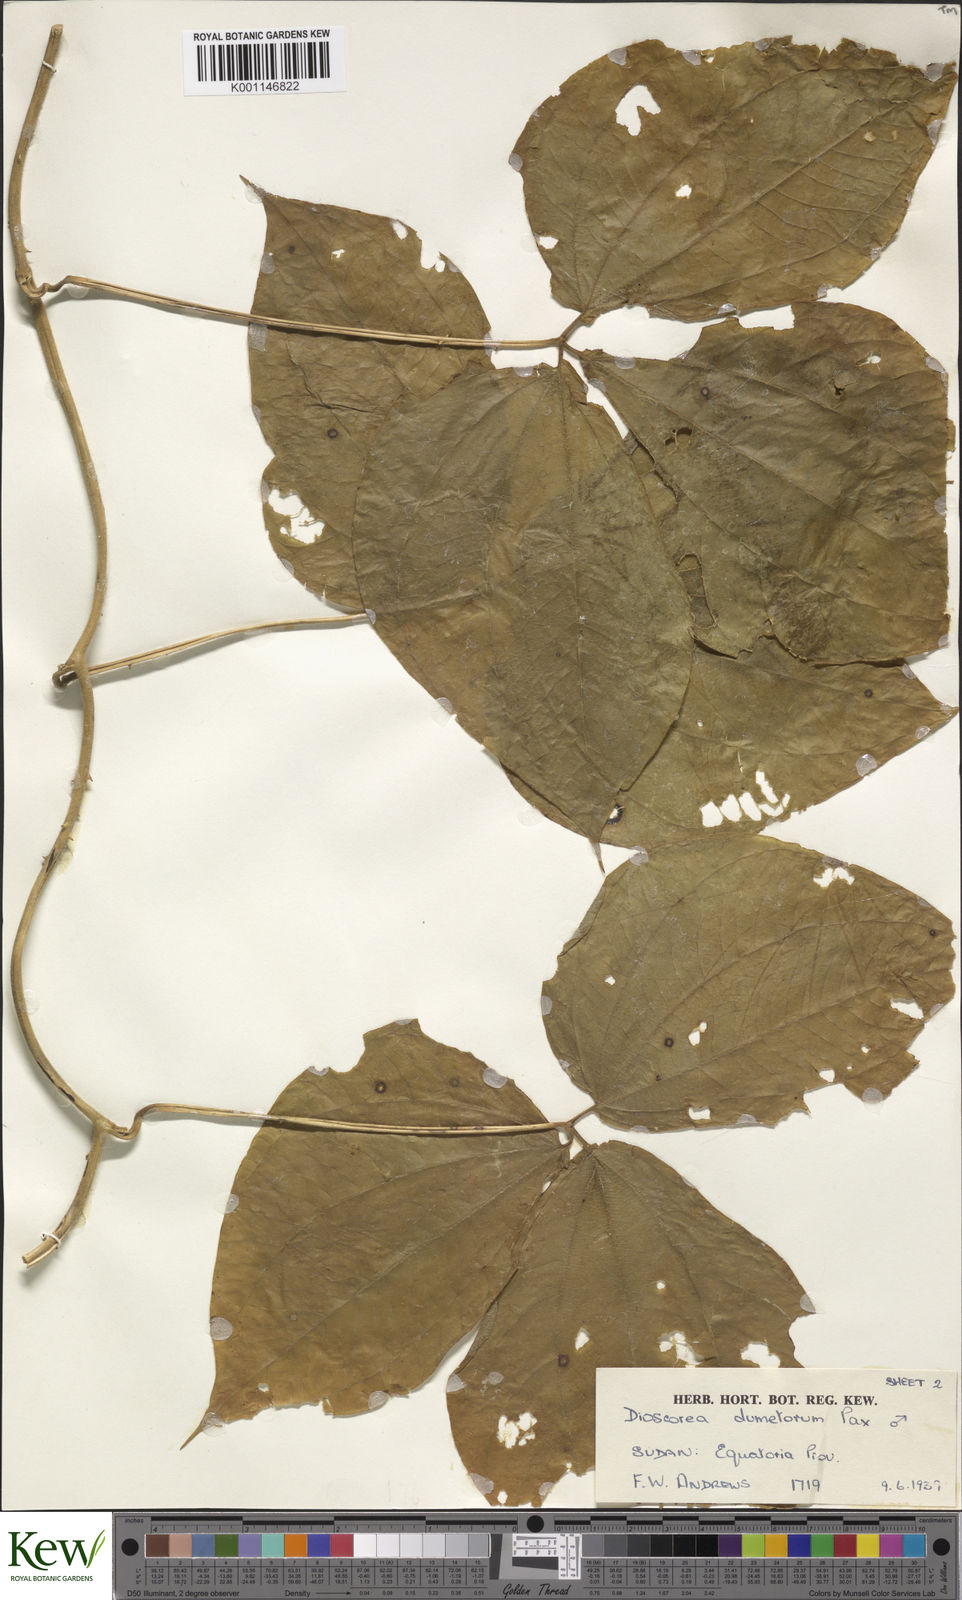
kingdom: Plantae
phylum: Tracheophyta
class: Liliopsida
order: Dioscoreales
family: Dioscoreaceae
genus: Dioscorea
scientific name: Dioscorea dumetorum
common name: African bitter yam
